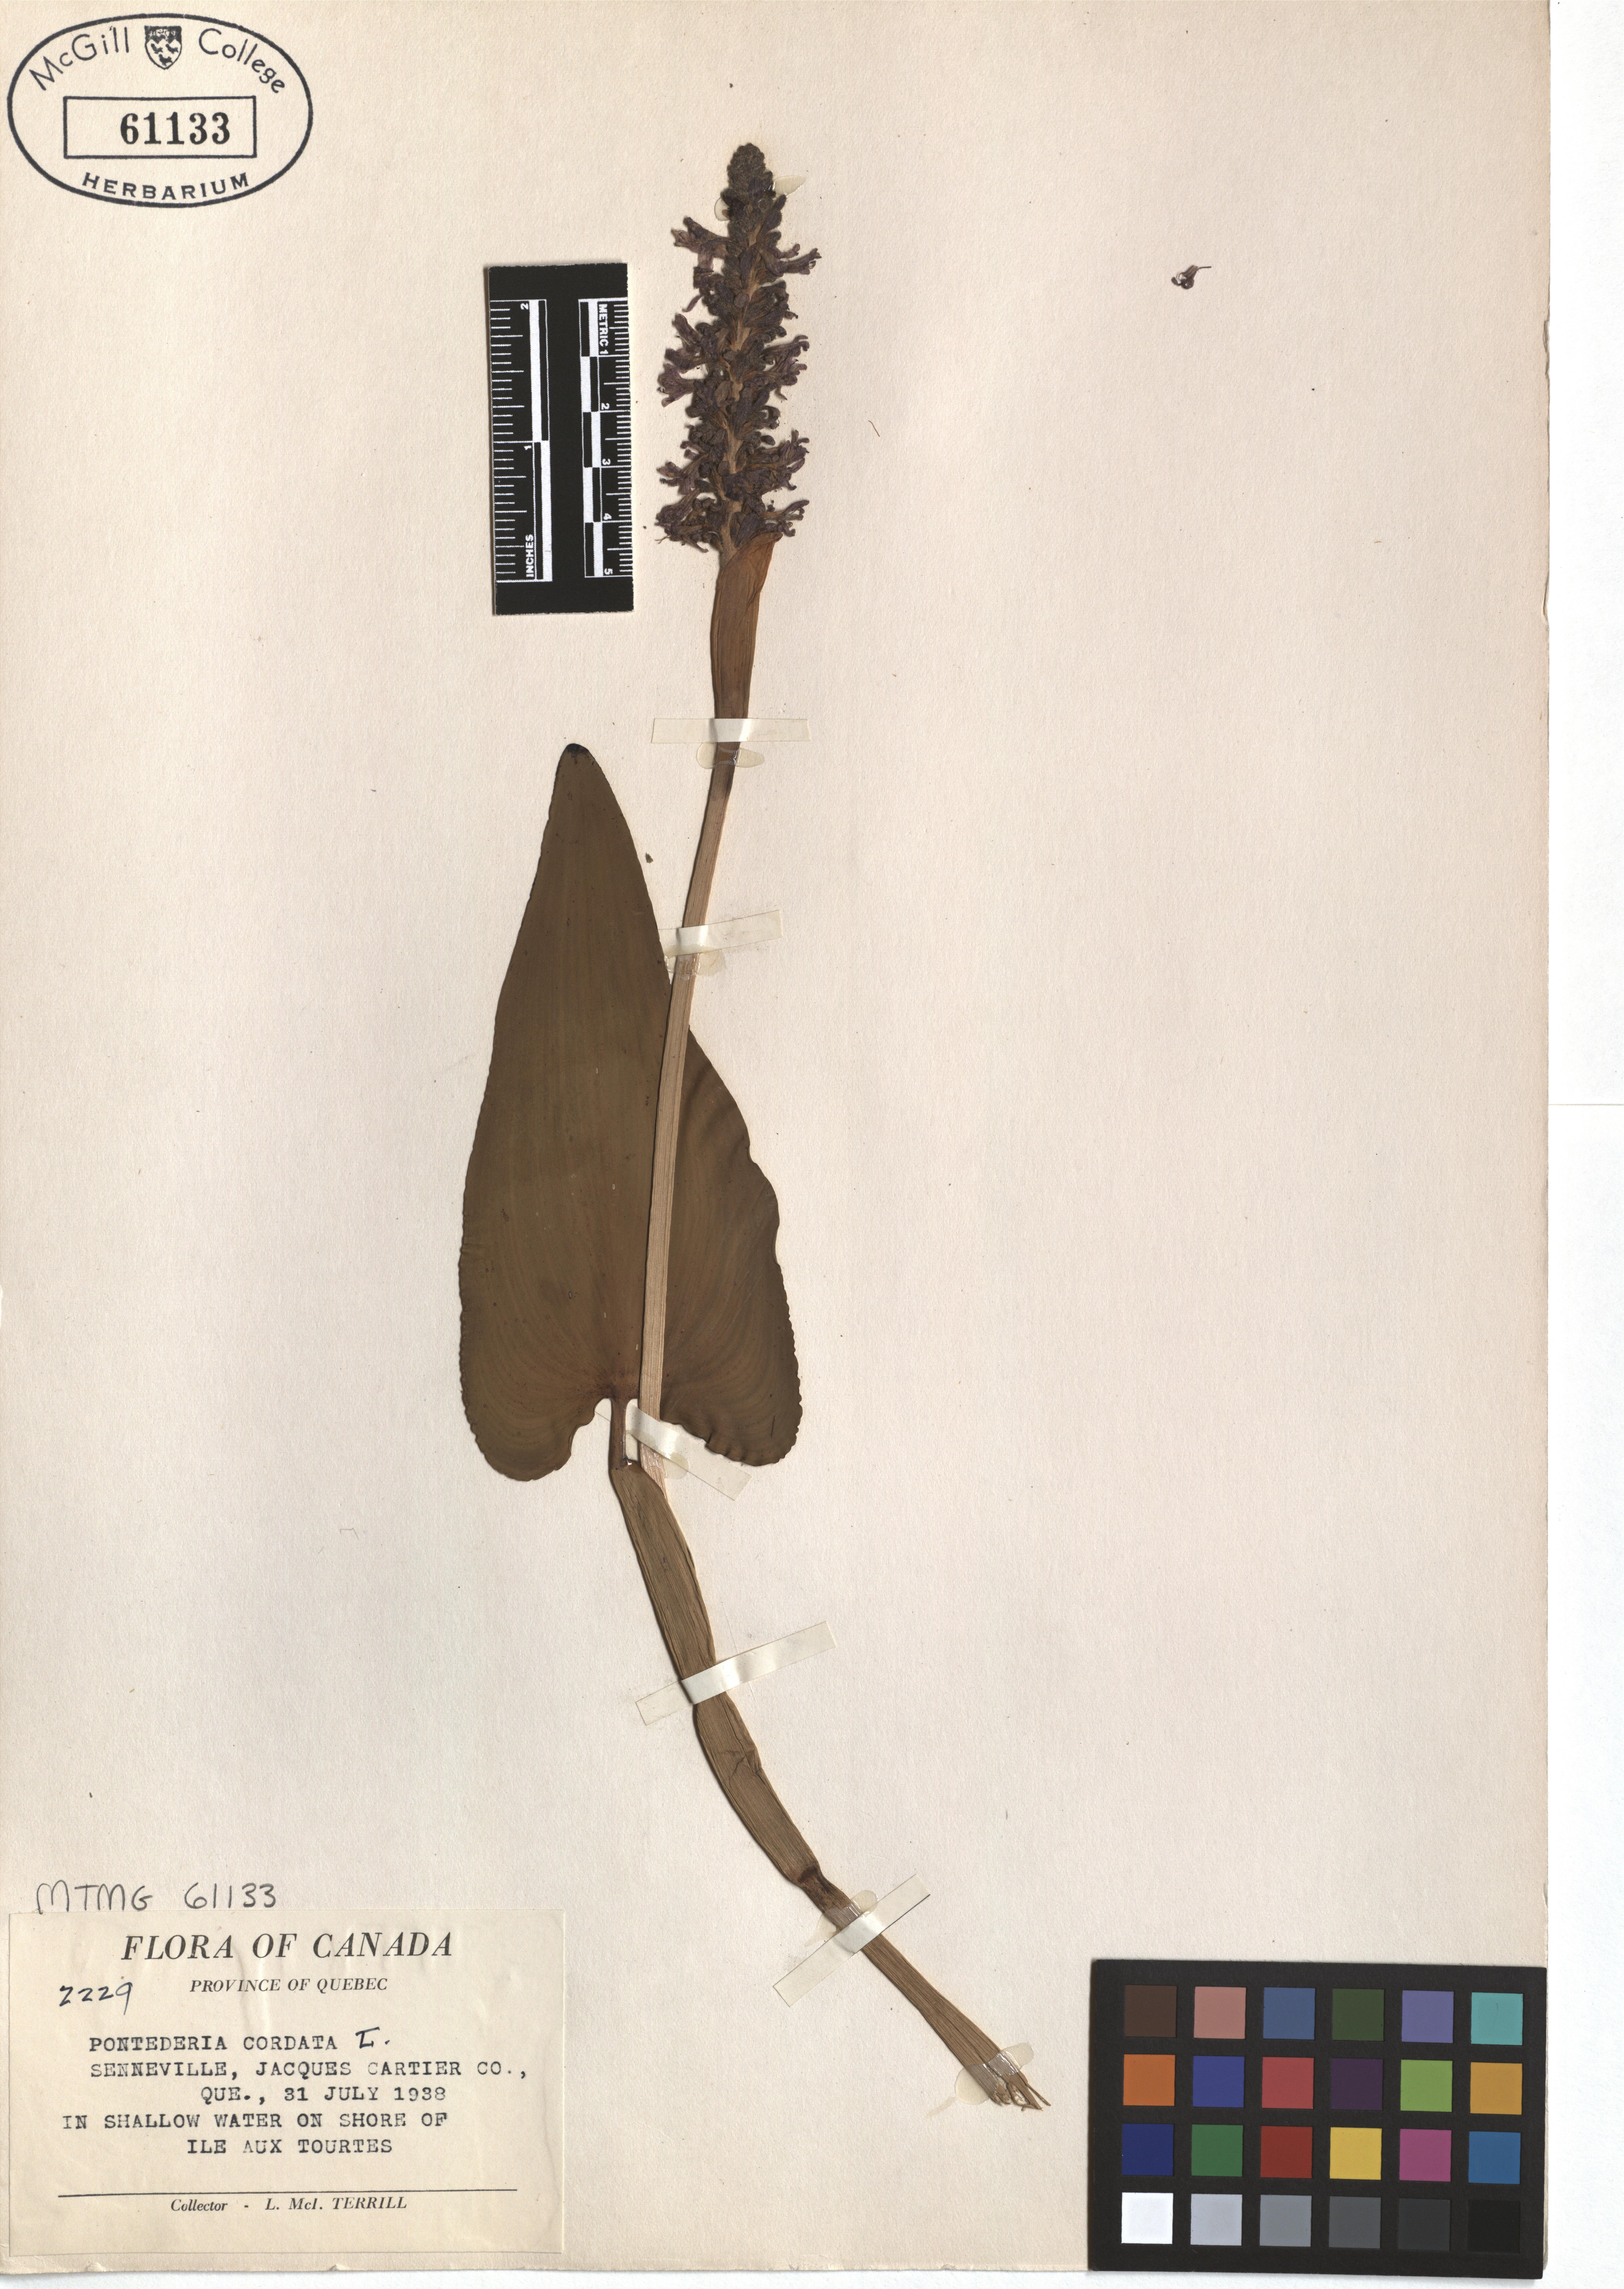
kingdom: Plantae
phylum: Tracheophyta
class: Liliopsida
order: Commelinales
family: Pontederiaceae
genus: Pontederia
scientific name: Pontederia cordata
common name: Pickerelweed
